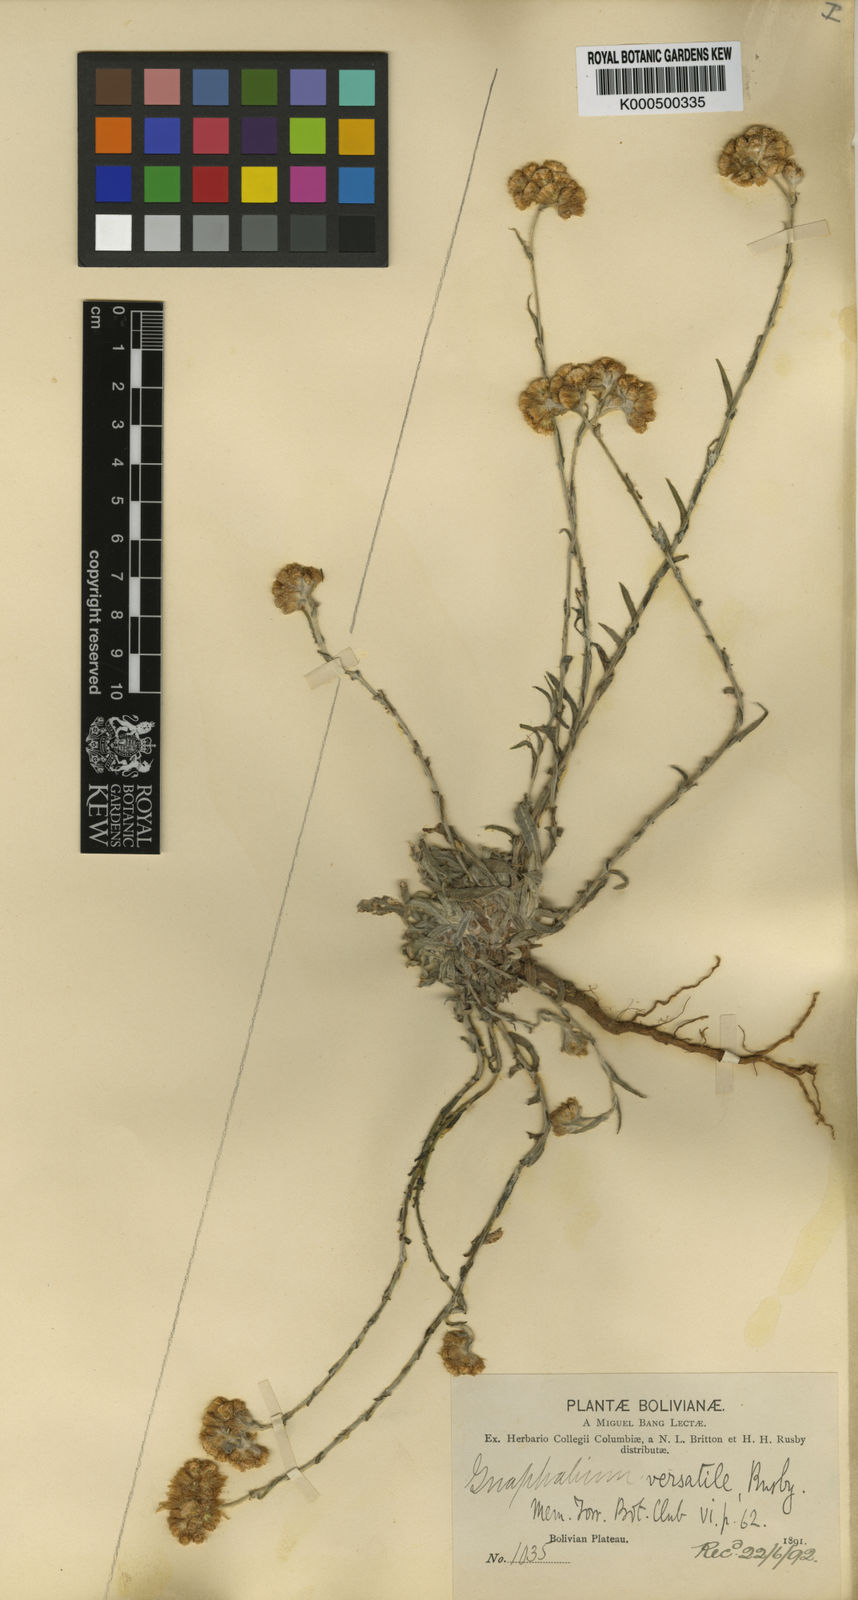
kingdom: Plantae
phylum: Tracheophyta
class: Magnoliopsida
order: Asterales
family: Asteraceae
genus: Pseudognaphalium
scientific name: Pseudognaphalium versatile
